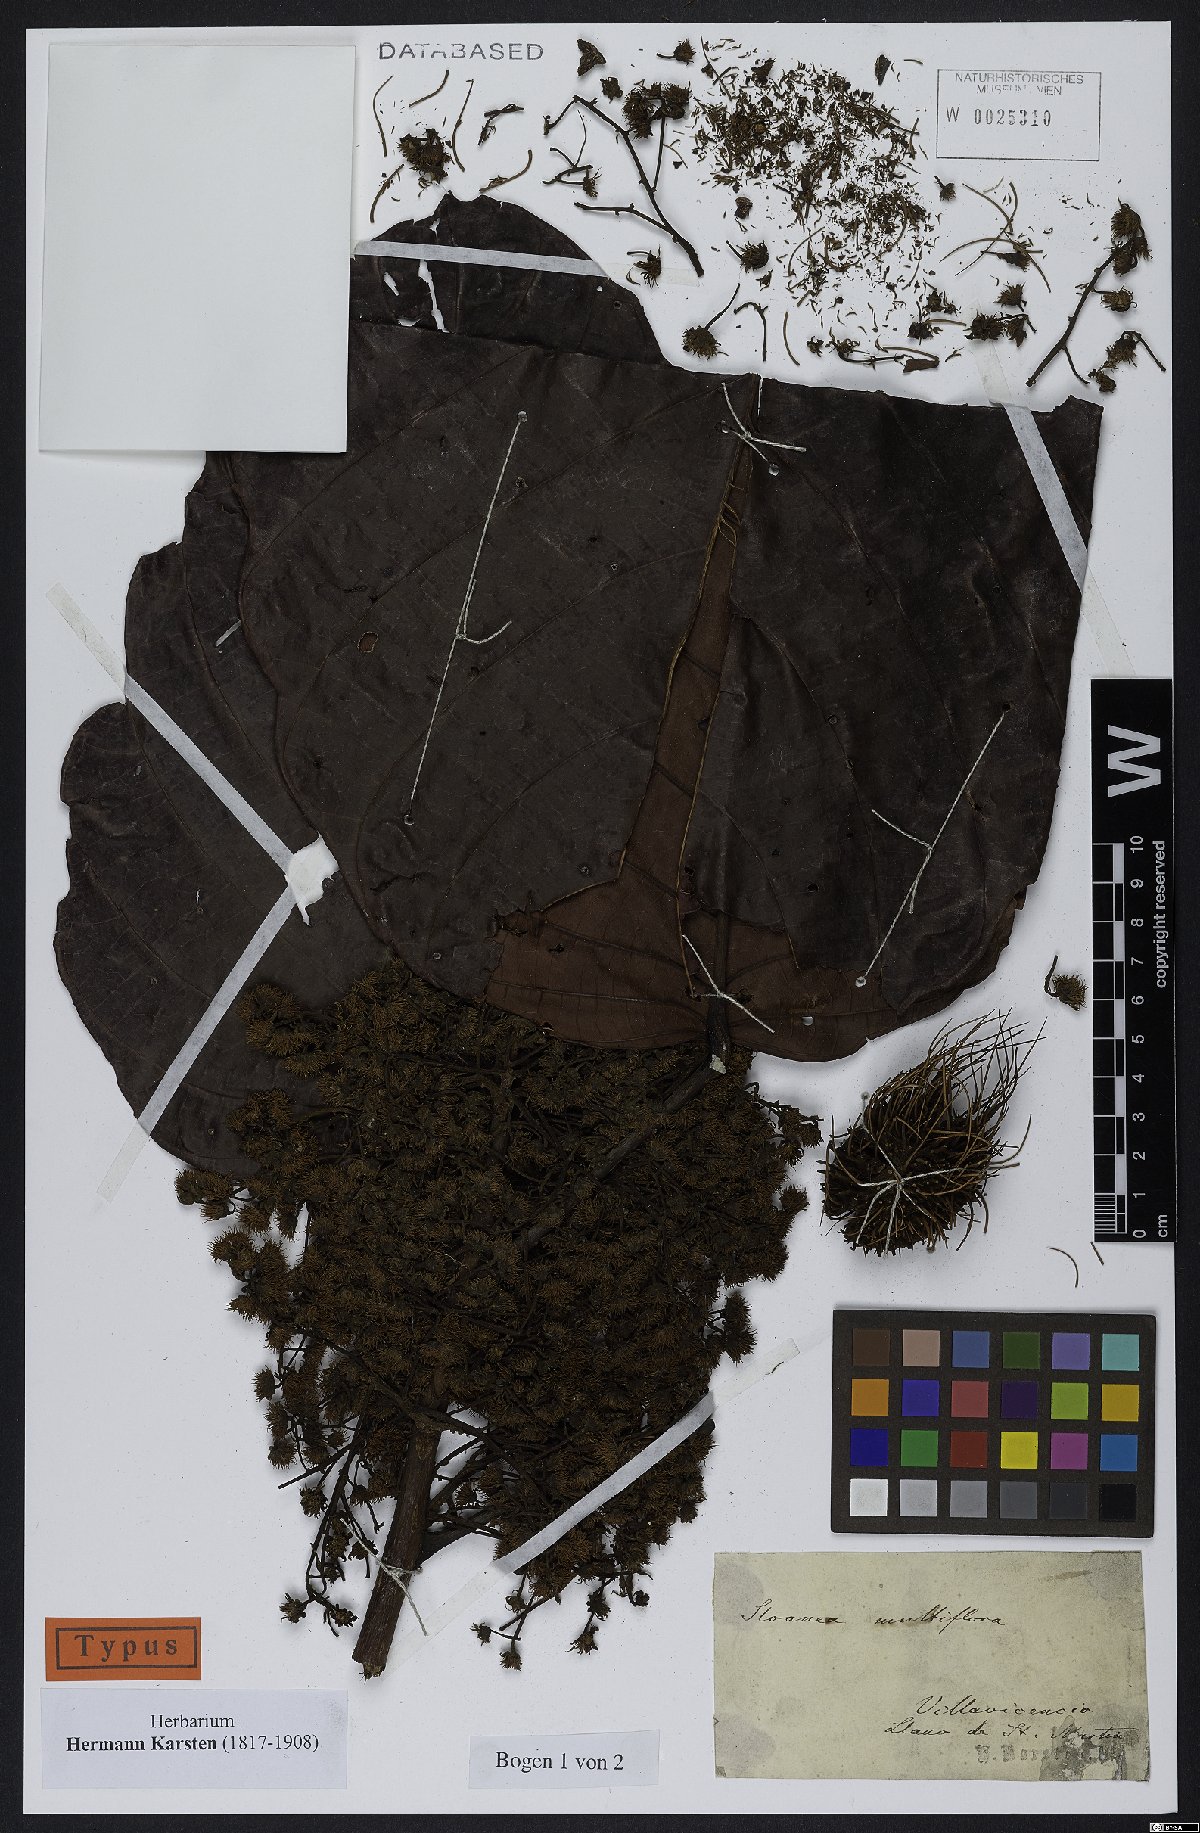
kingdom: Plantae
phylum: Tracheophyta
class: Magnoliopsida
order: Oxalidales
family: Elaeocarpaceae
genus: Sloanea
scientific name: Sloanea castanocarpa
